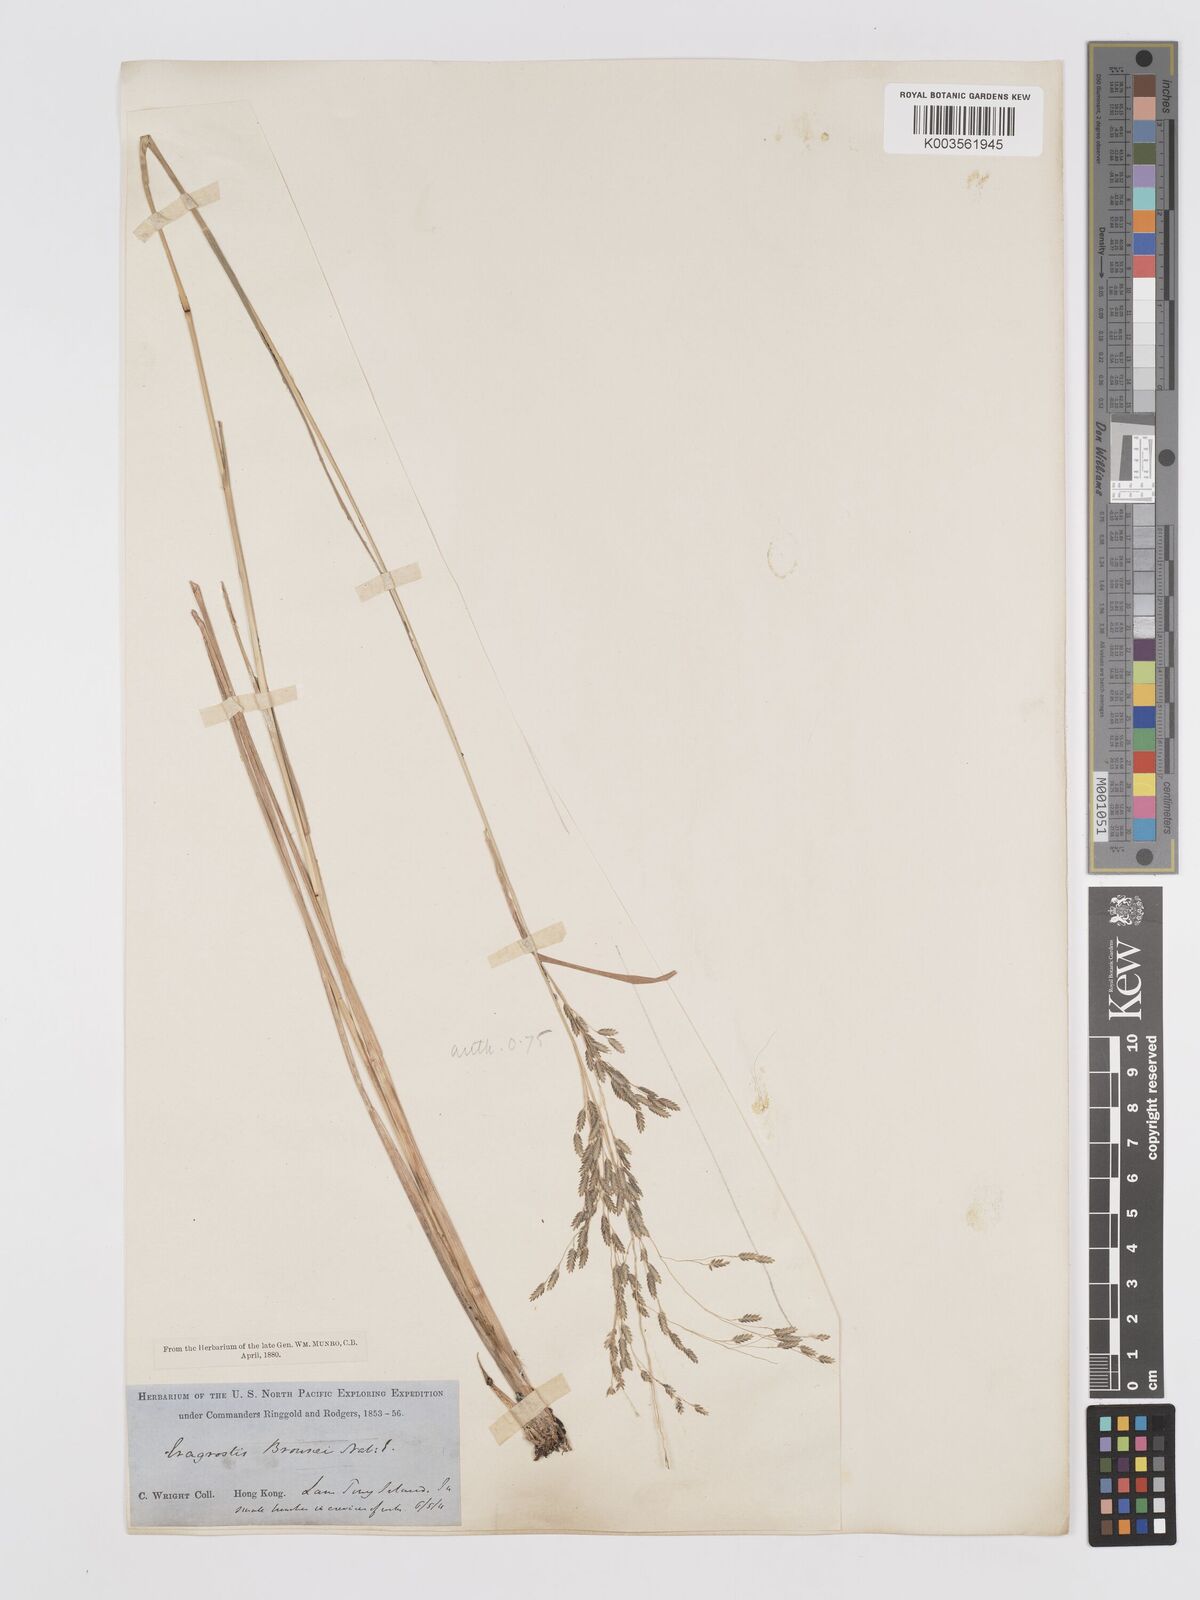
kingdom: Plantae
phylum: Tracheophyta
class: Liliopsida
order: Poales
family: Poaceae
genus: Eragrostis
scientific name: Eragrostis atrovirens
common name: Thalia lovegrass
